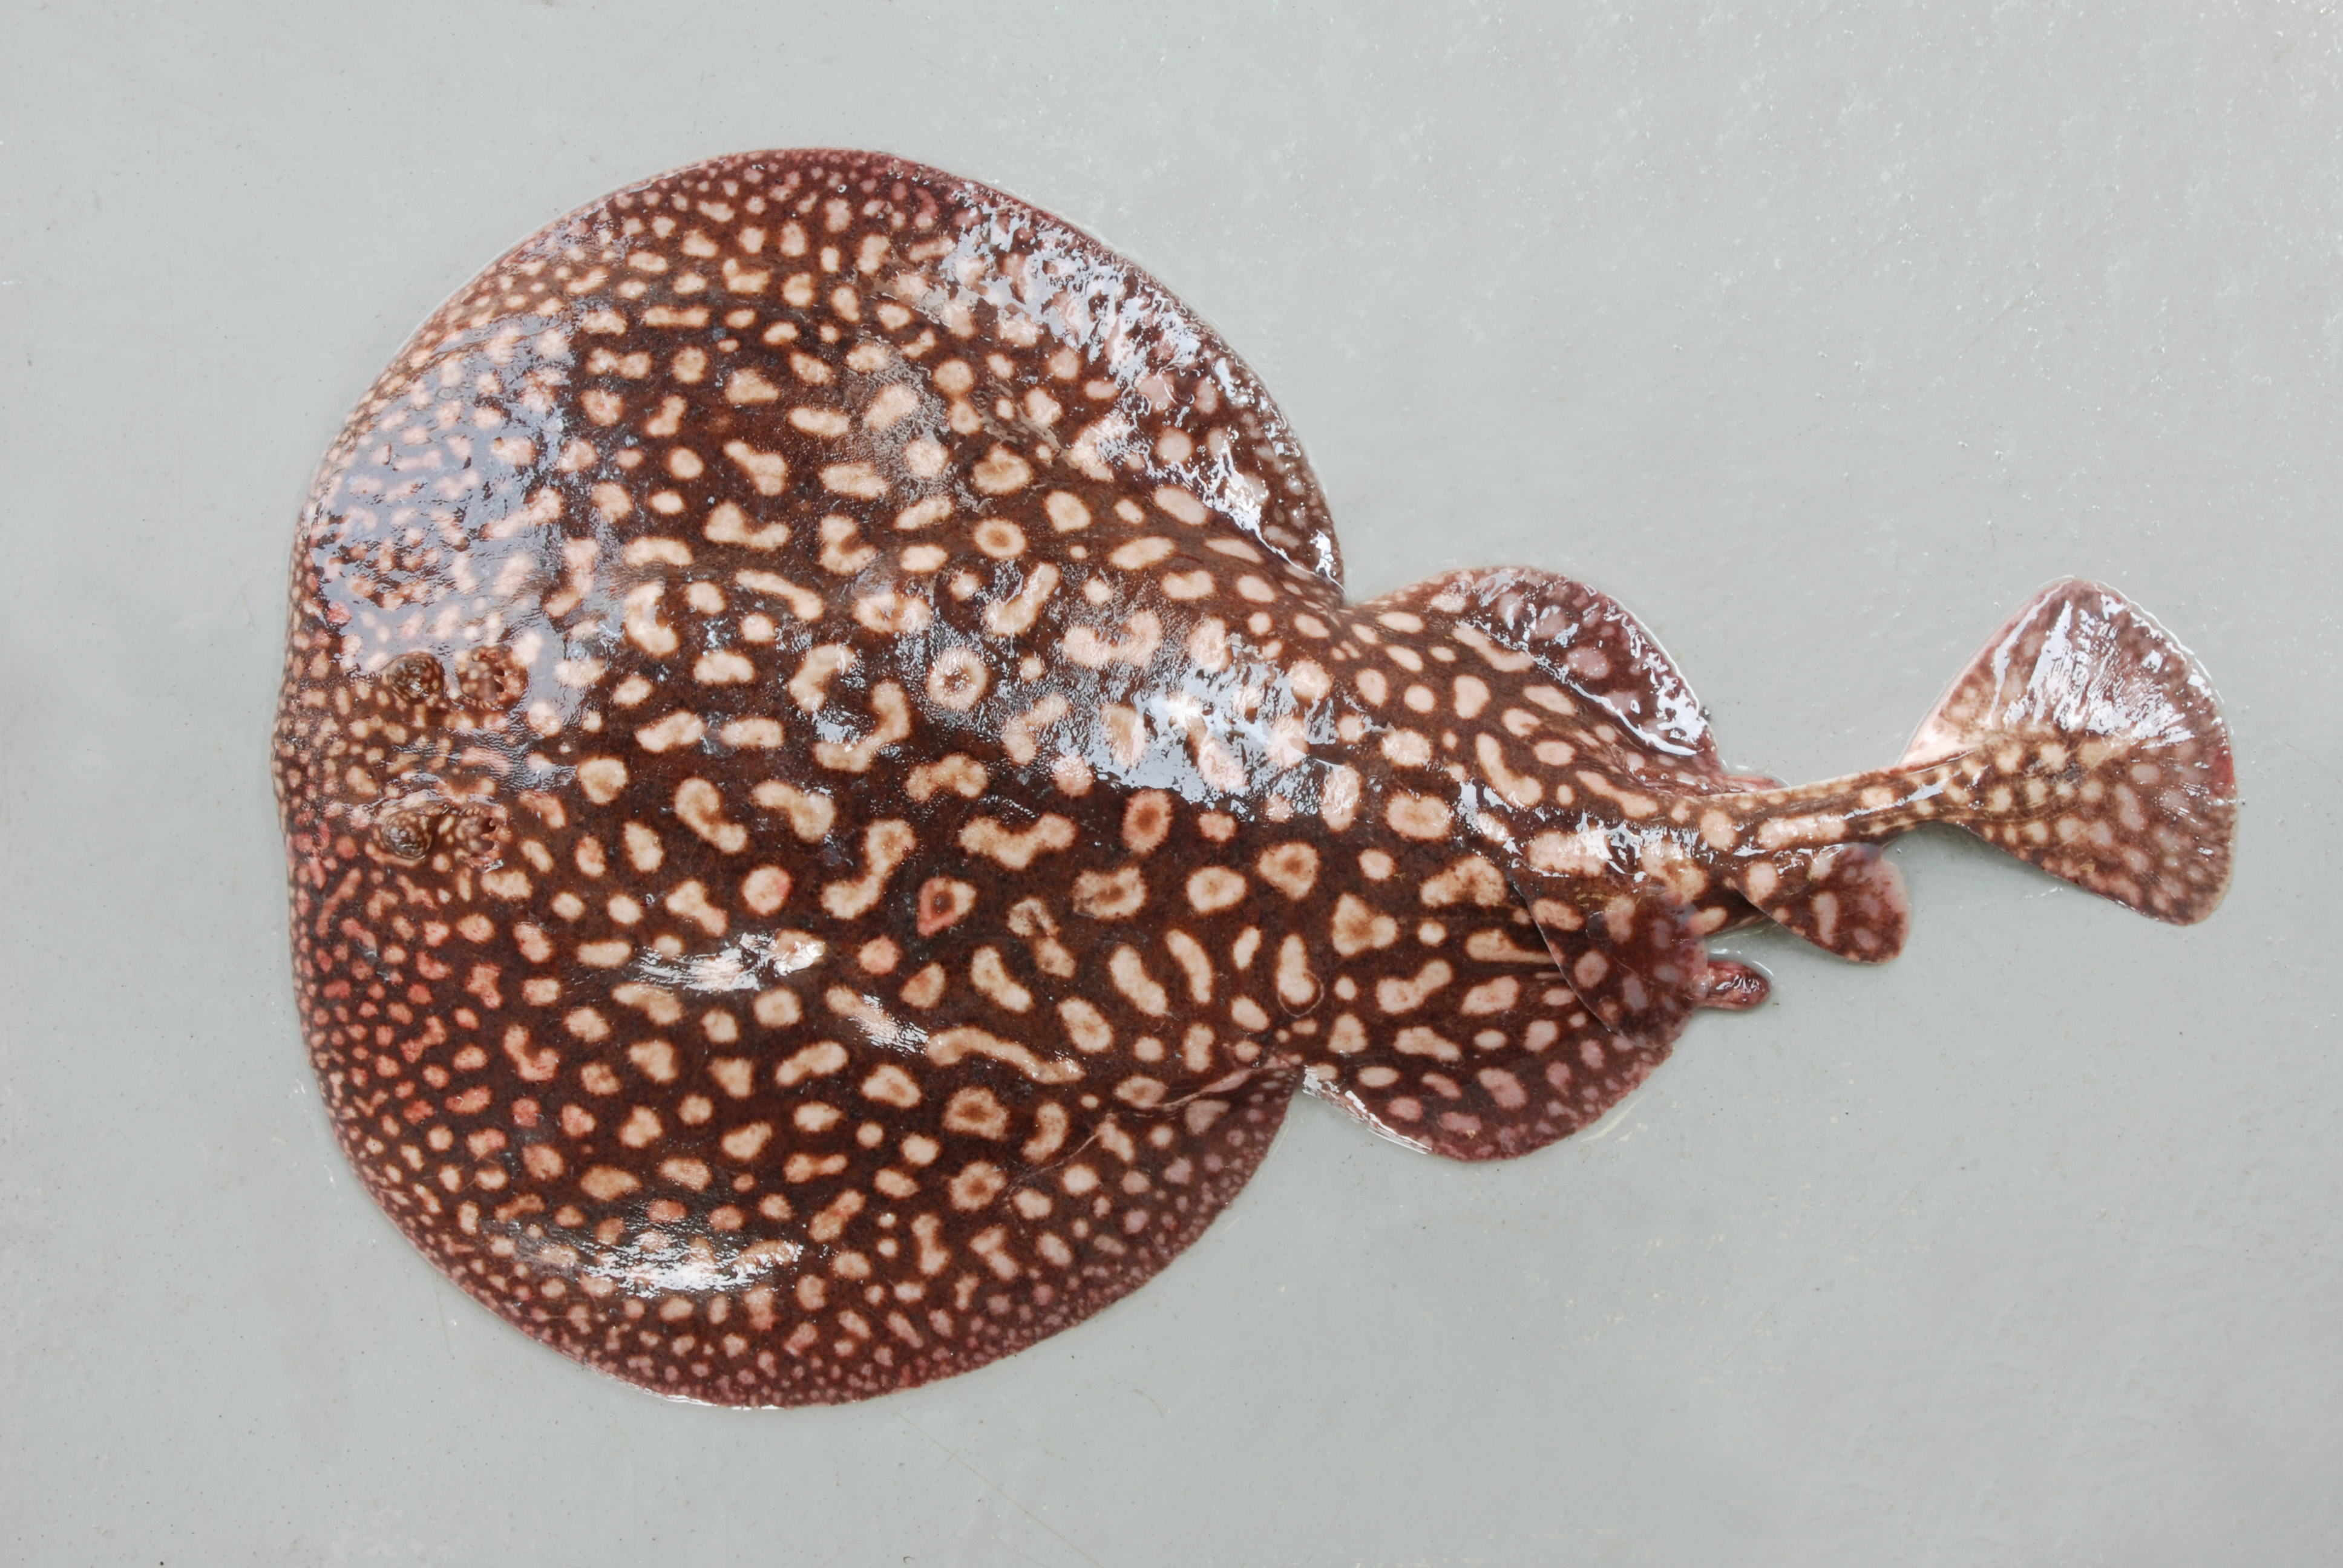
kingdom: Animalia
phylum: Chordata
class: Elasmobranchii
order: Torpediniformes
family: Torpedinidae
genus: Torpedo
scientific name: Torpedo sinuspersici
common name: Marbled electric ray
